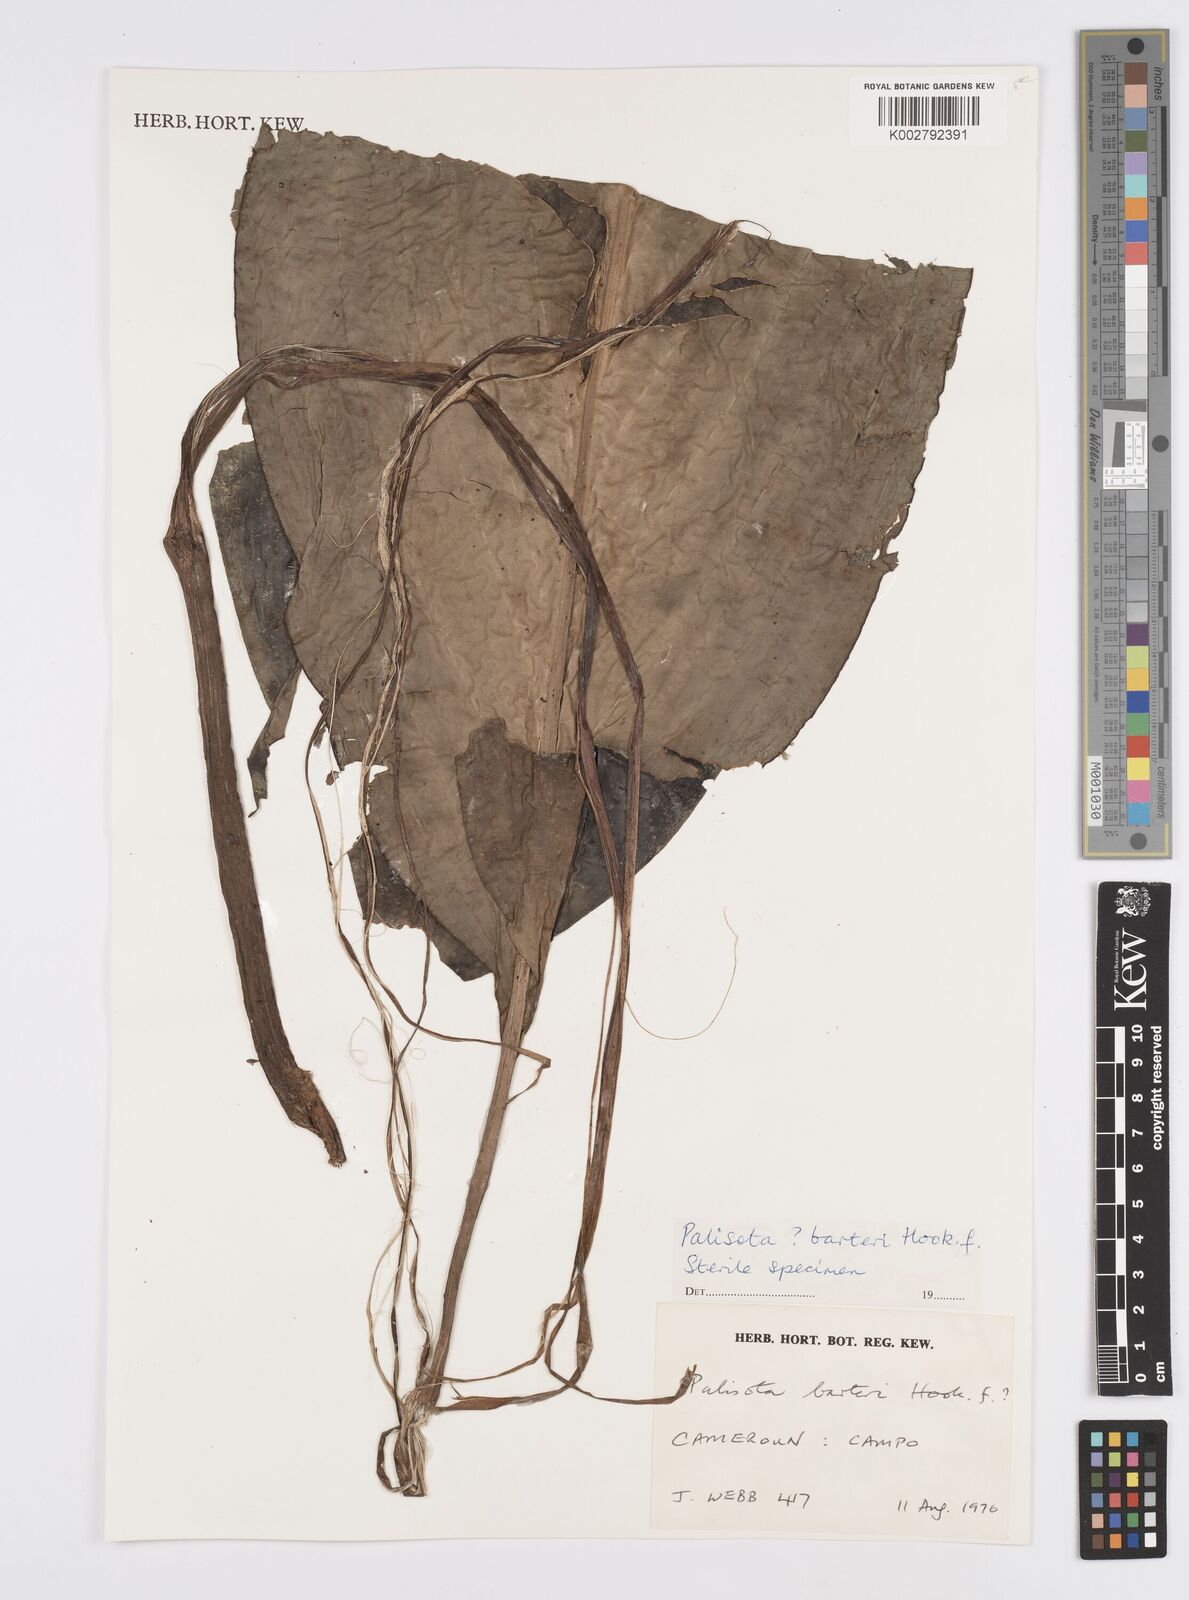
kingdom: Plantae
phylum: Tracheophyta
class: Liliopsida
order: Commelinales
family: Commelinaceae
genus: Palisota
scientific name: Palisota barteri
